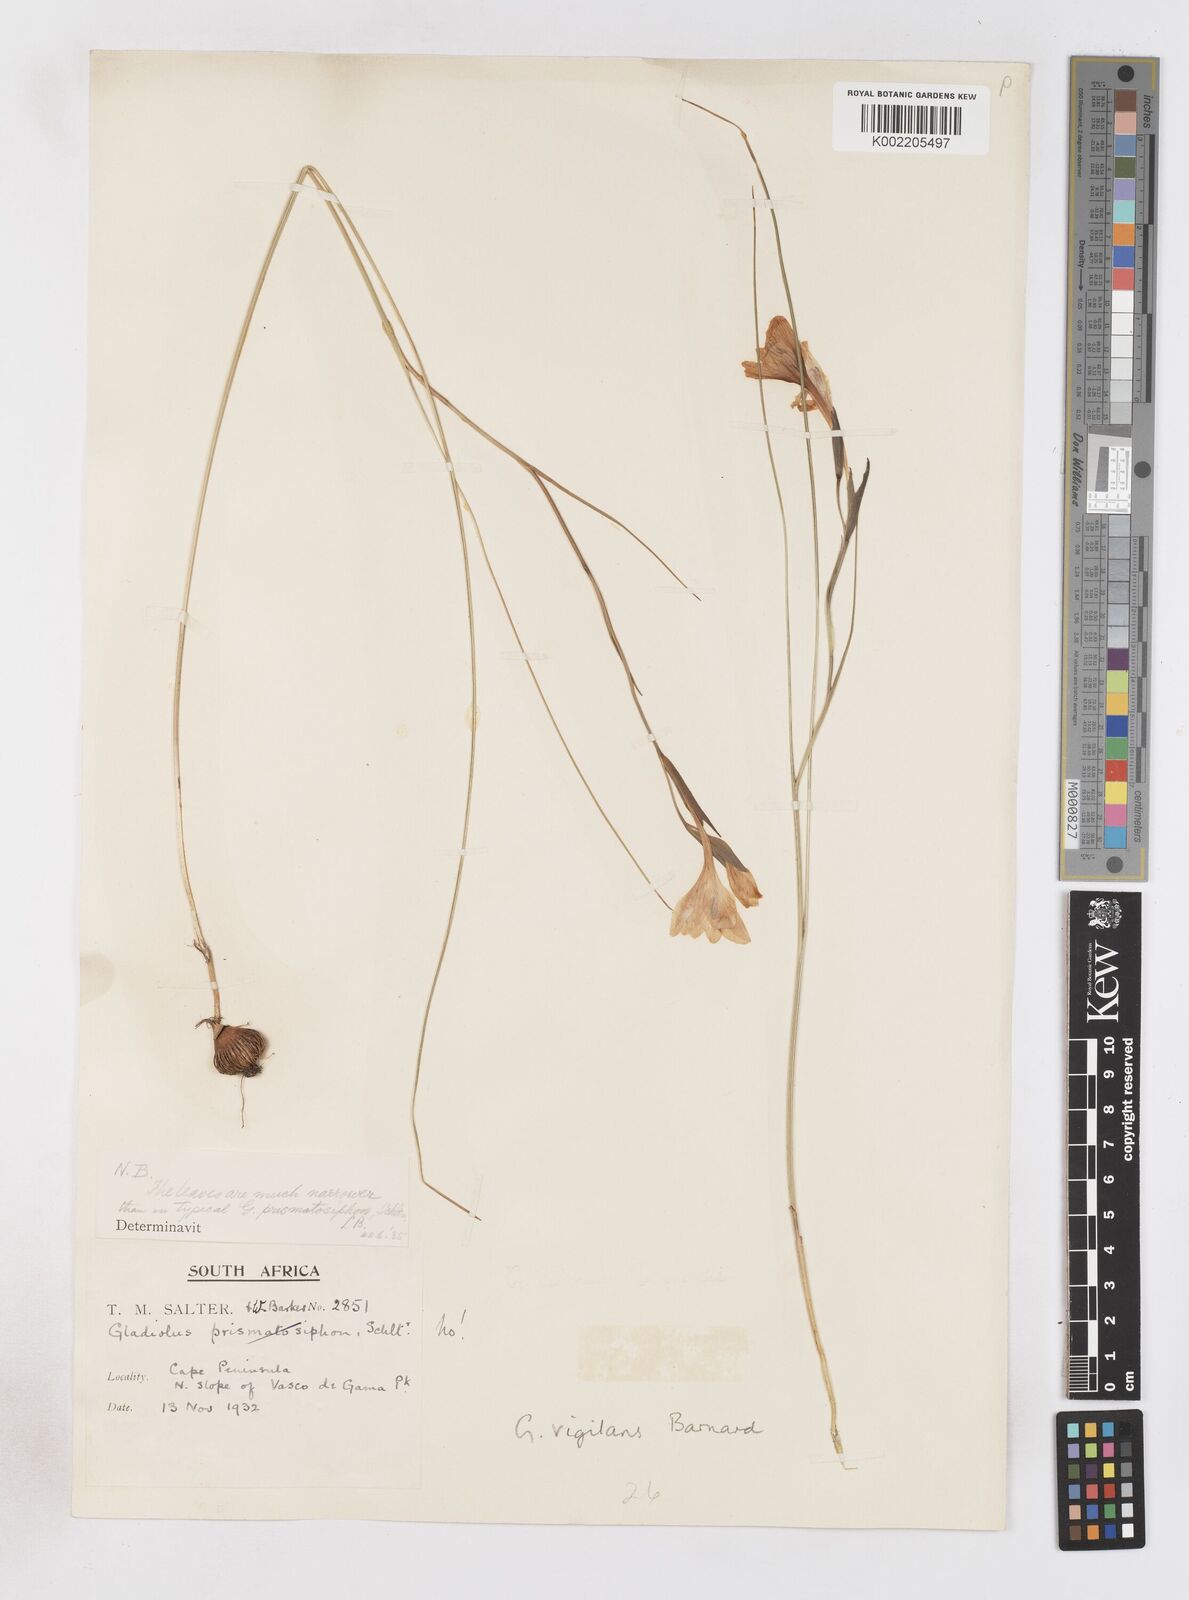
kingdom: Plantae
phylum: Tracheophyta
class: Liliopsida
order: Asparagales
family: Iridaceae
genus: Gladiolus
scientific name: Gladiolus vigilans
